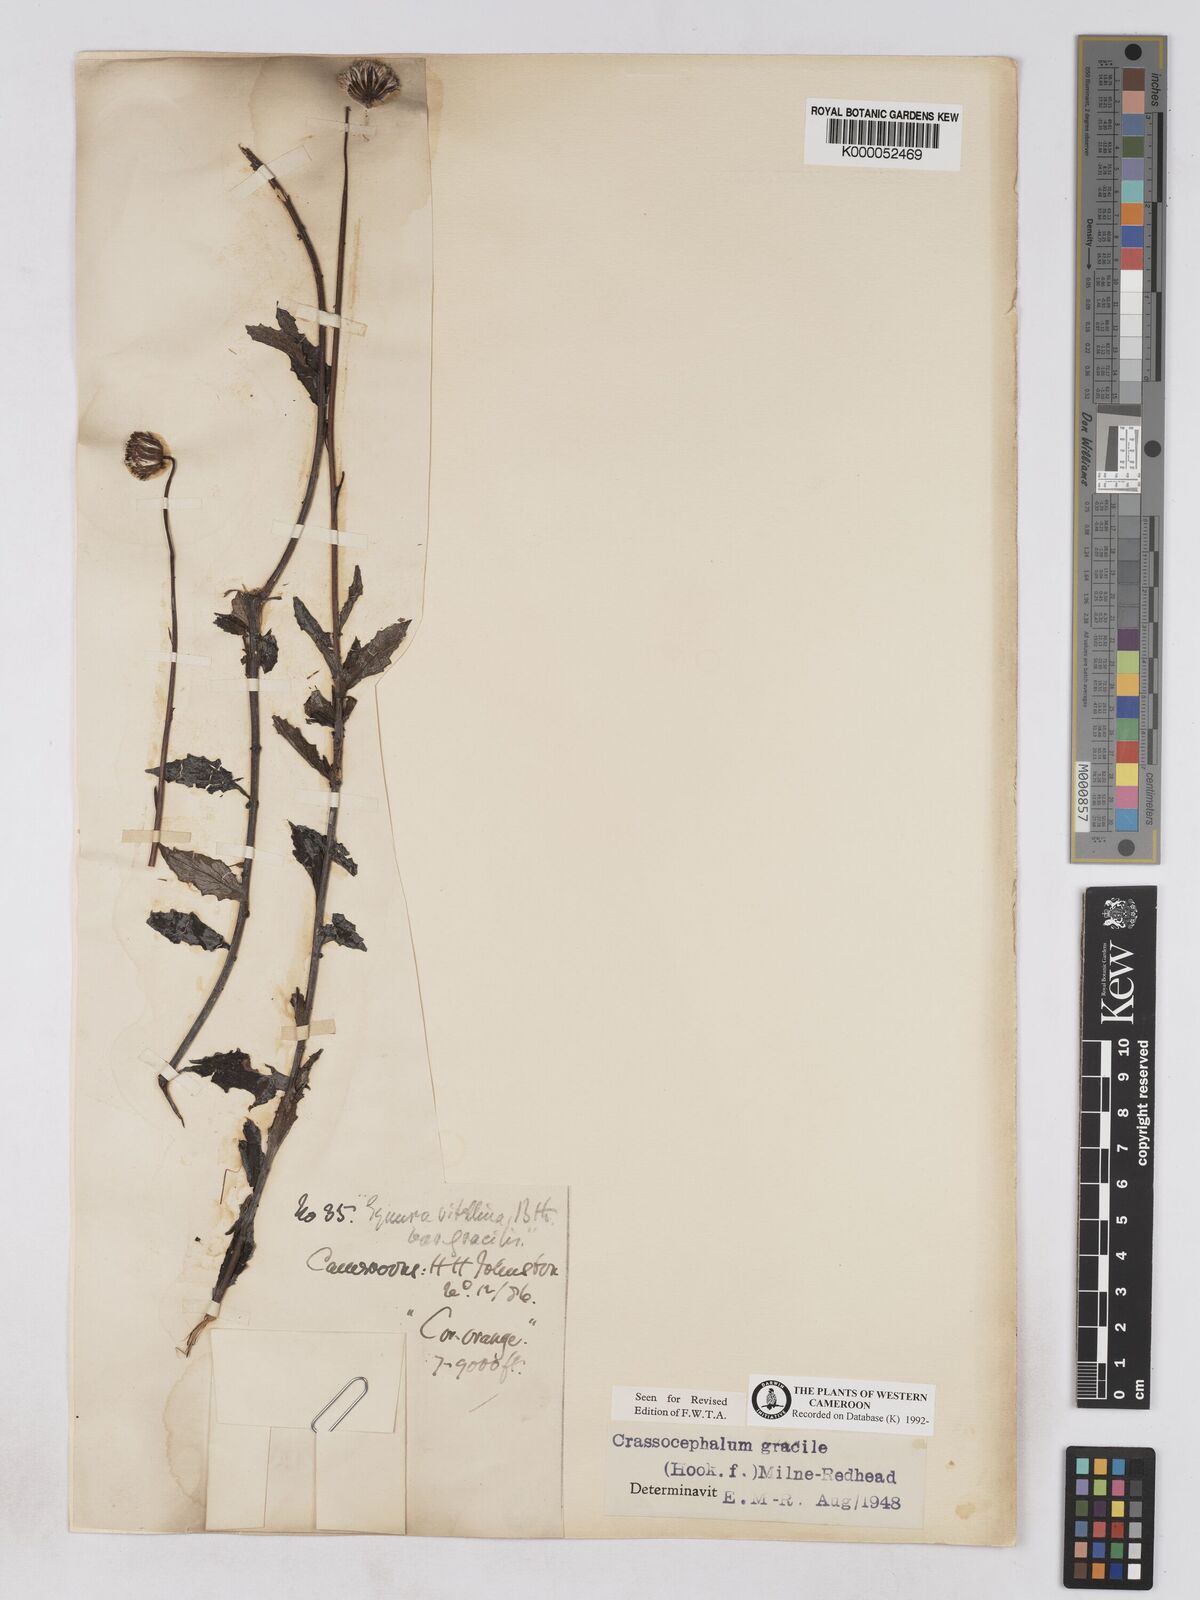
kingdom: Plantae
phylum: Tracheophyta
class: Magnoliopsida
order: Asterales
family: Asteraceae
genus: Crassocephalum
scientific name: Crassocephalum
